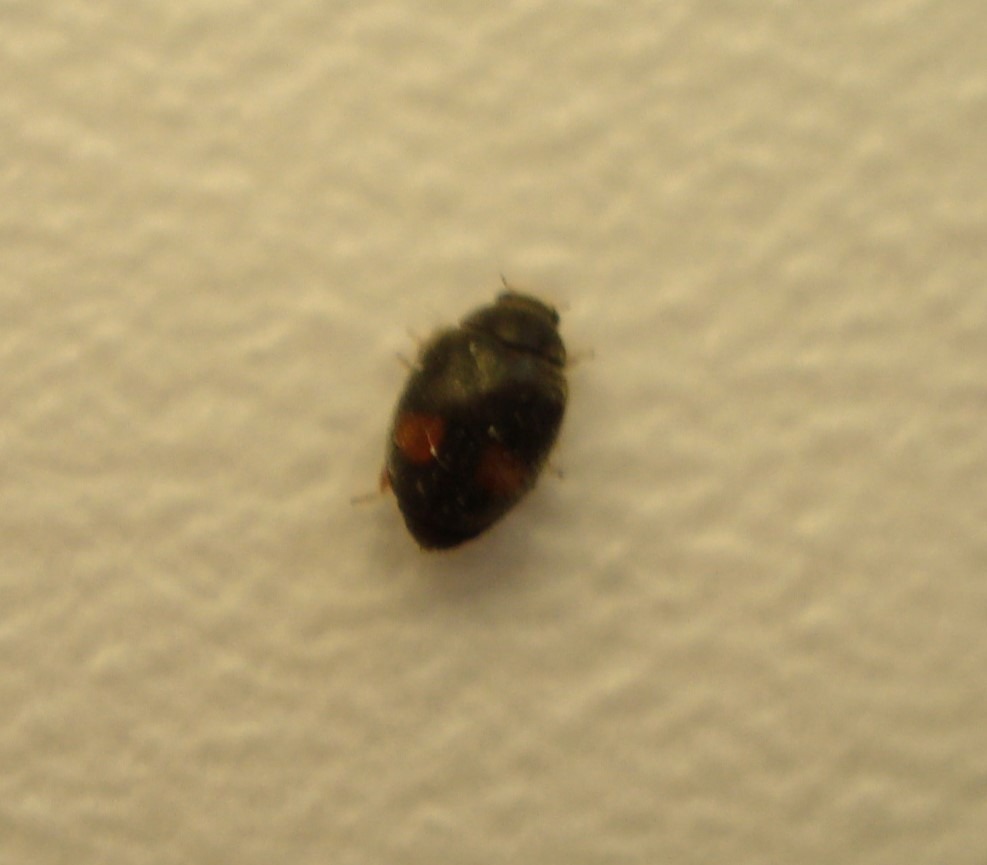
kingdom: Animalia
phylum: Arthropoda
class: Insecta
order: Coleoptera
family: Coccinellidae
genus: Nephus
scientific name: Nephus bipunctatus
